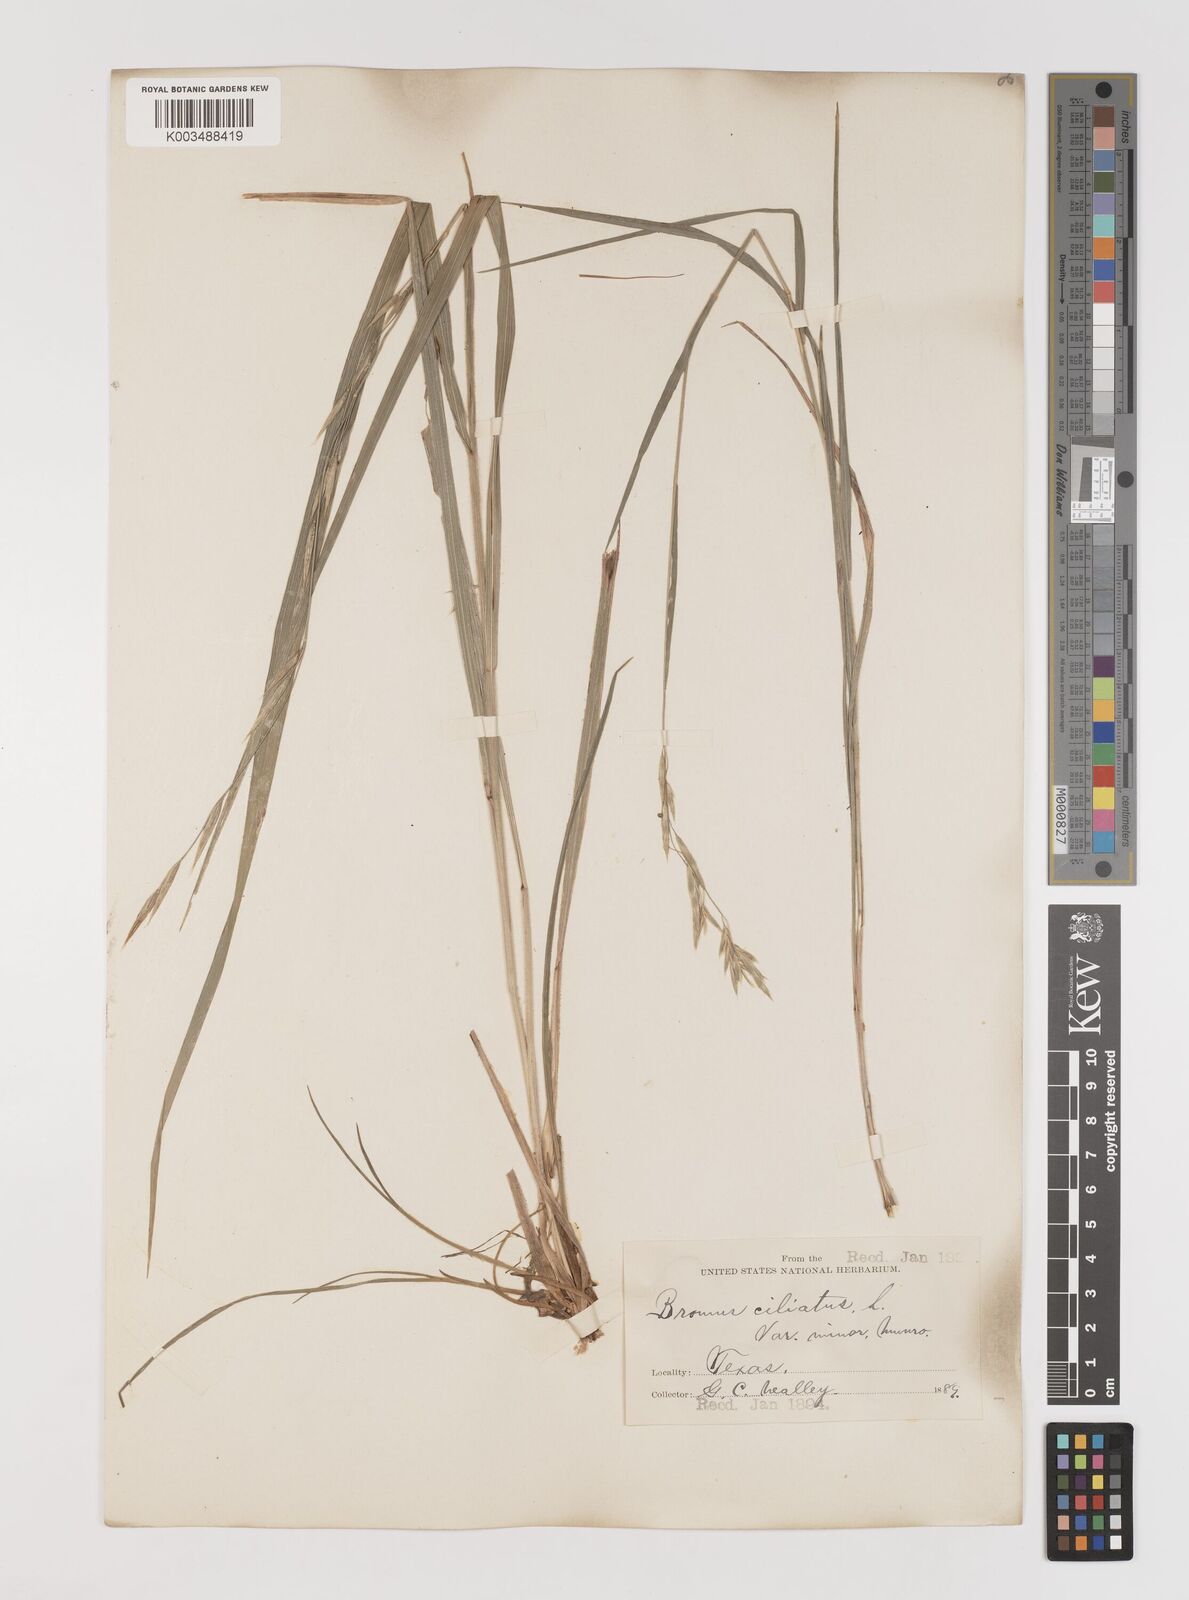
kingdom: Plantae
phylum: Tracheophyta
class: Liliopsida
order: Poales
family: Poaceae
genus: Bromus
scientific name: Bromus ciliatus
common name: Fringe brome
